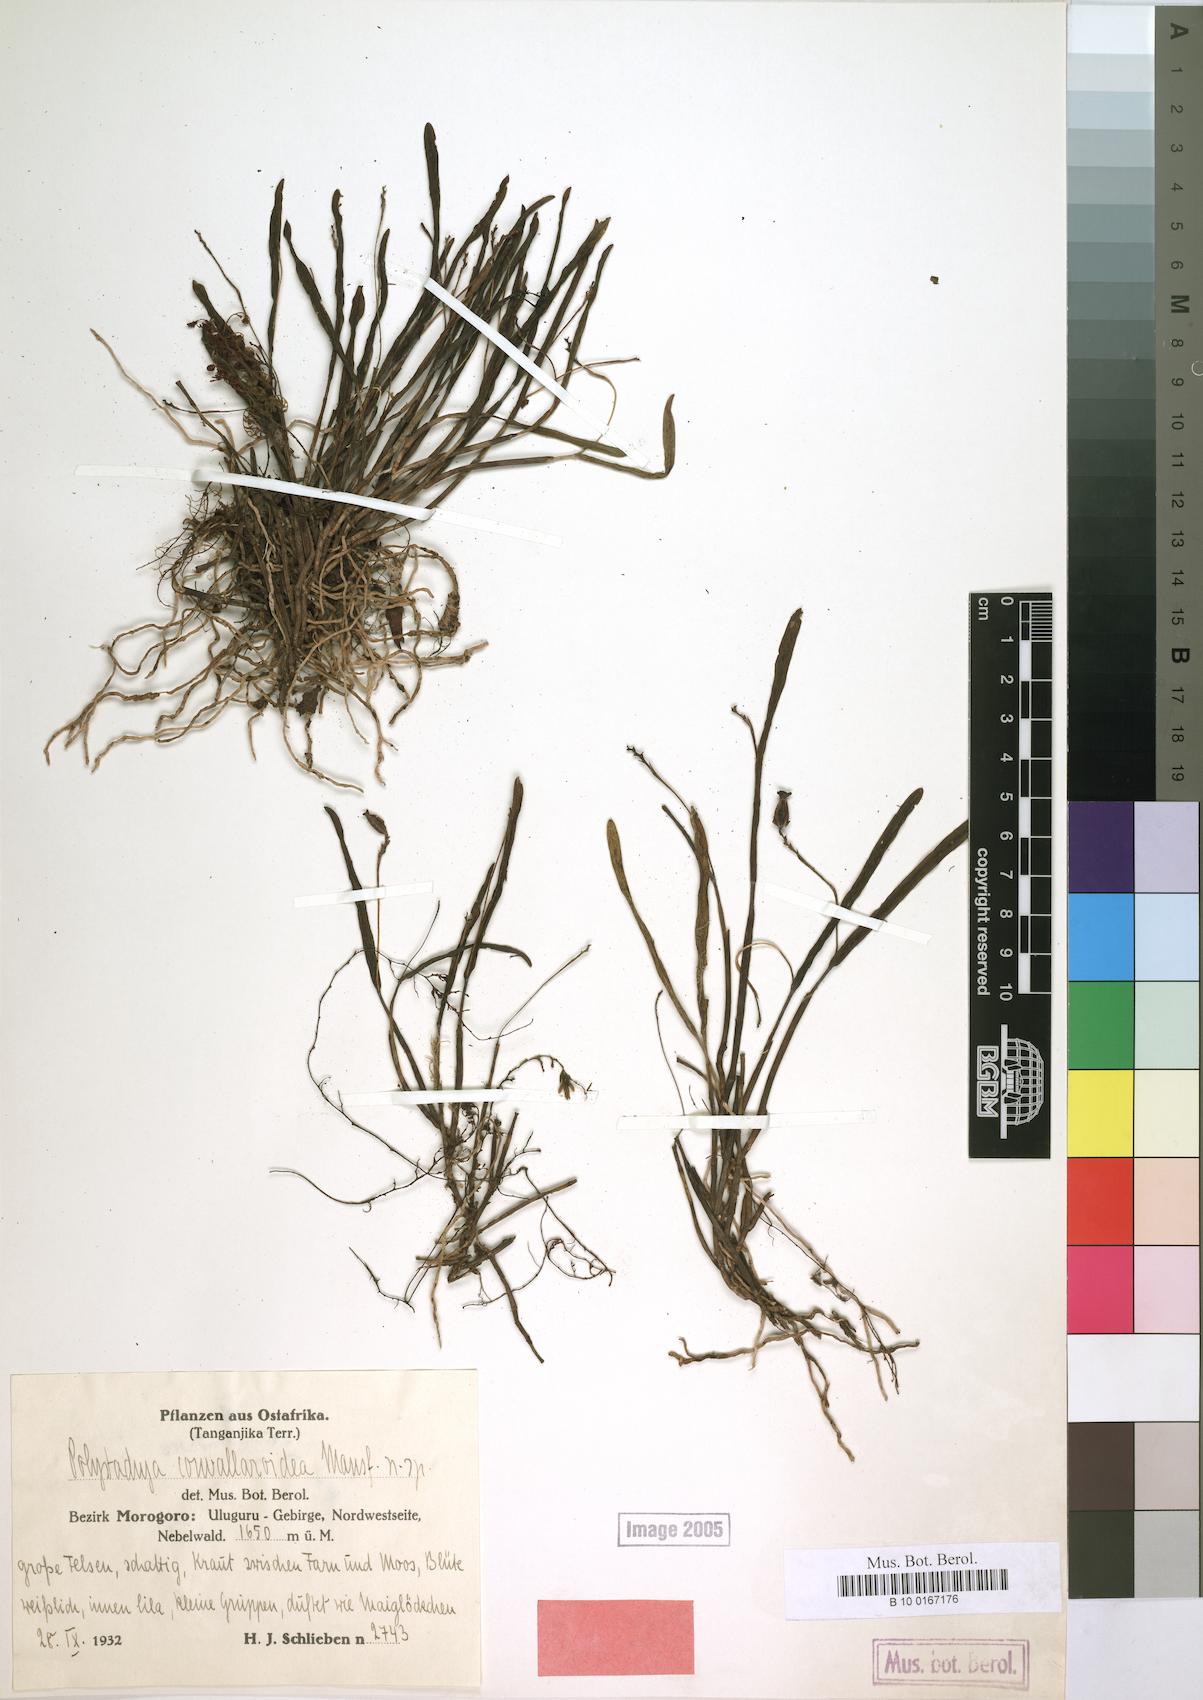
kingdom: Plantae
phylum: Tracheophyta
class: Liliopsida
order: Asparagales
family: Orchidaceae
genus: Polystachya
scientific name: Polystachya caespitifica
